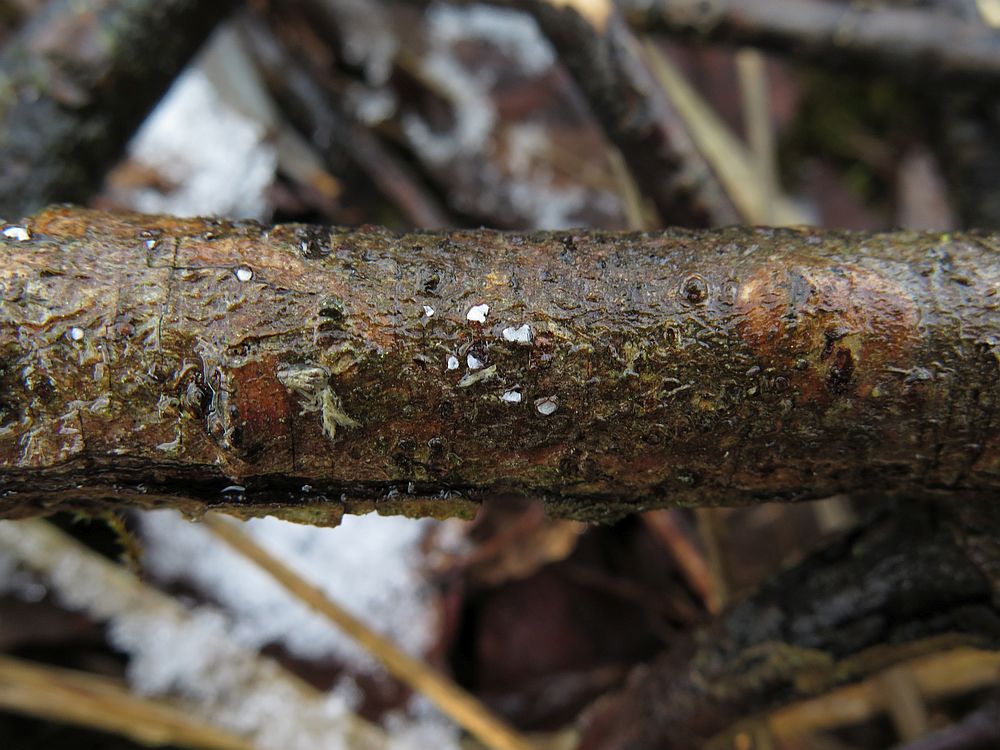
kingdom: Fungi
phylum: Ascomycota
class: Leotiomycetes
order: Chaetomellales
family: Marthamycetaceae
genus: Propolis
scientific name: Propolis farinosa
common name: almindelig vedsprængerskive
